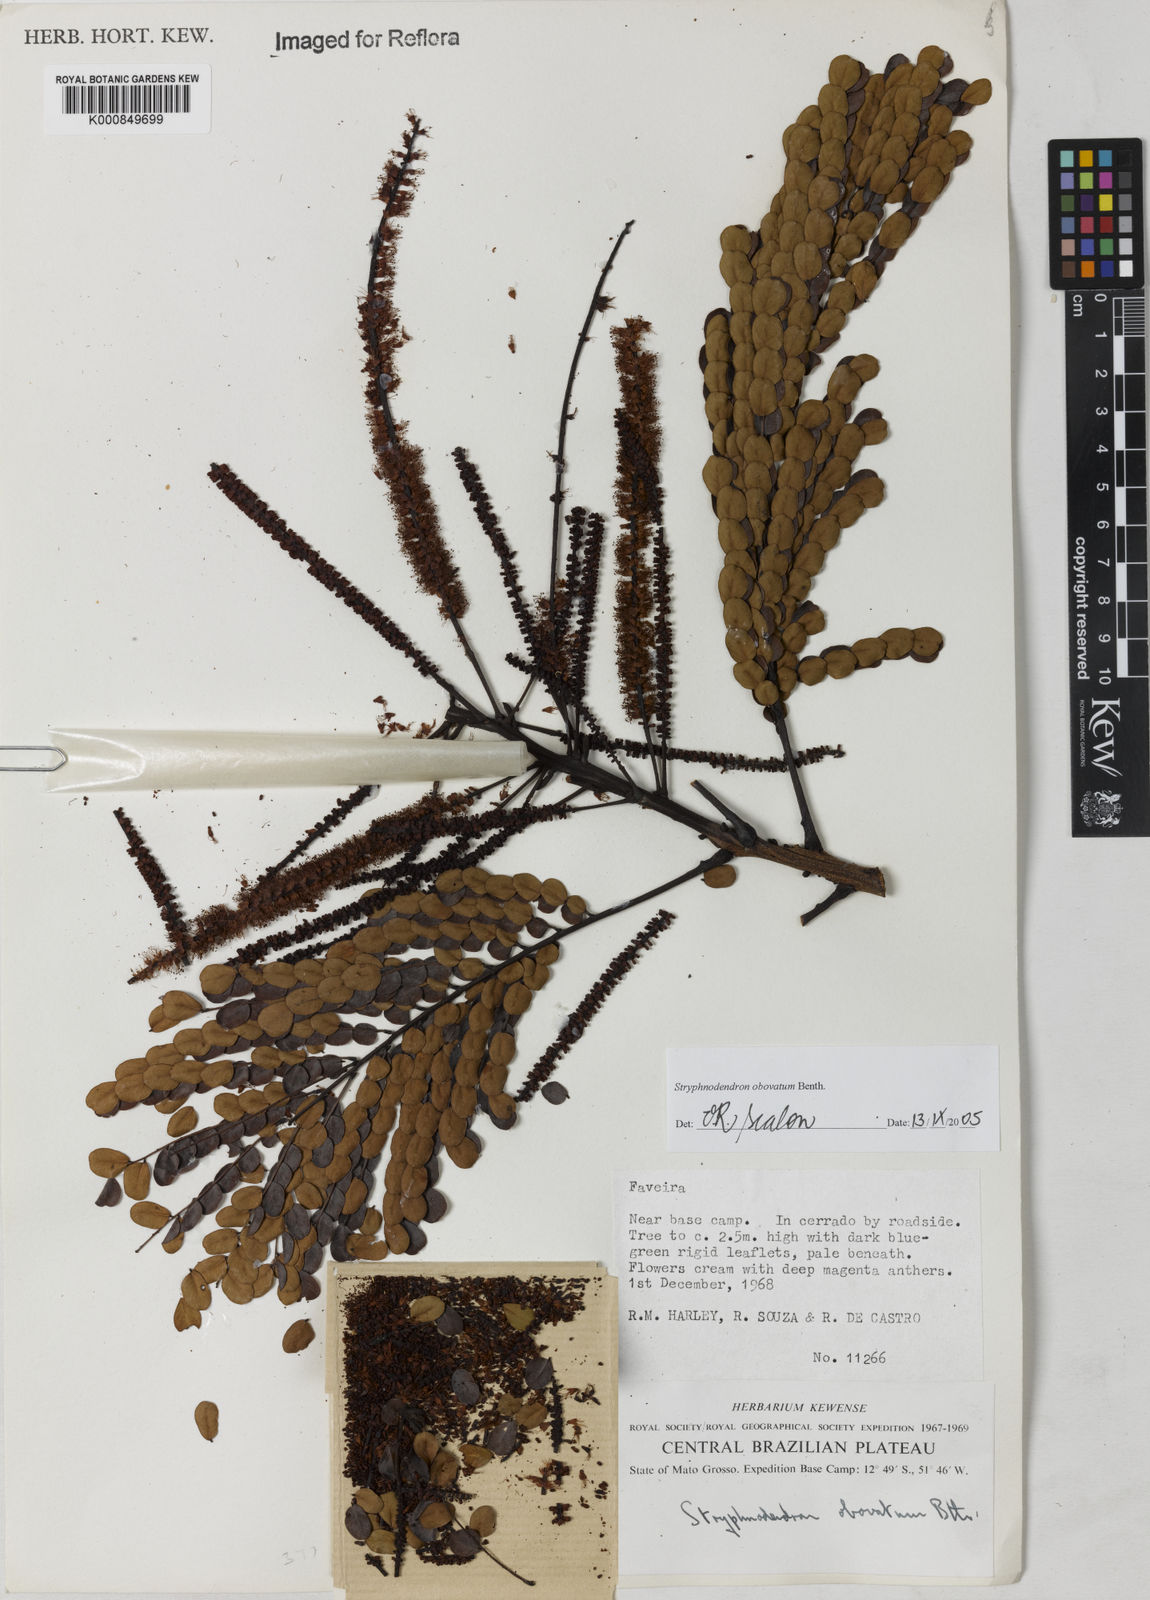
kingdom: Plantae
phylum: Tracheophyta
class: Magnoliopsida
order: Fabales
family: Fabaceae
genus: Stryphnodendron
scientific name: Stryphnodendron rotundifolium
